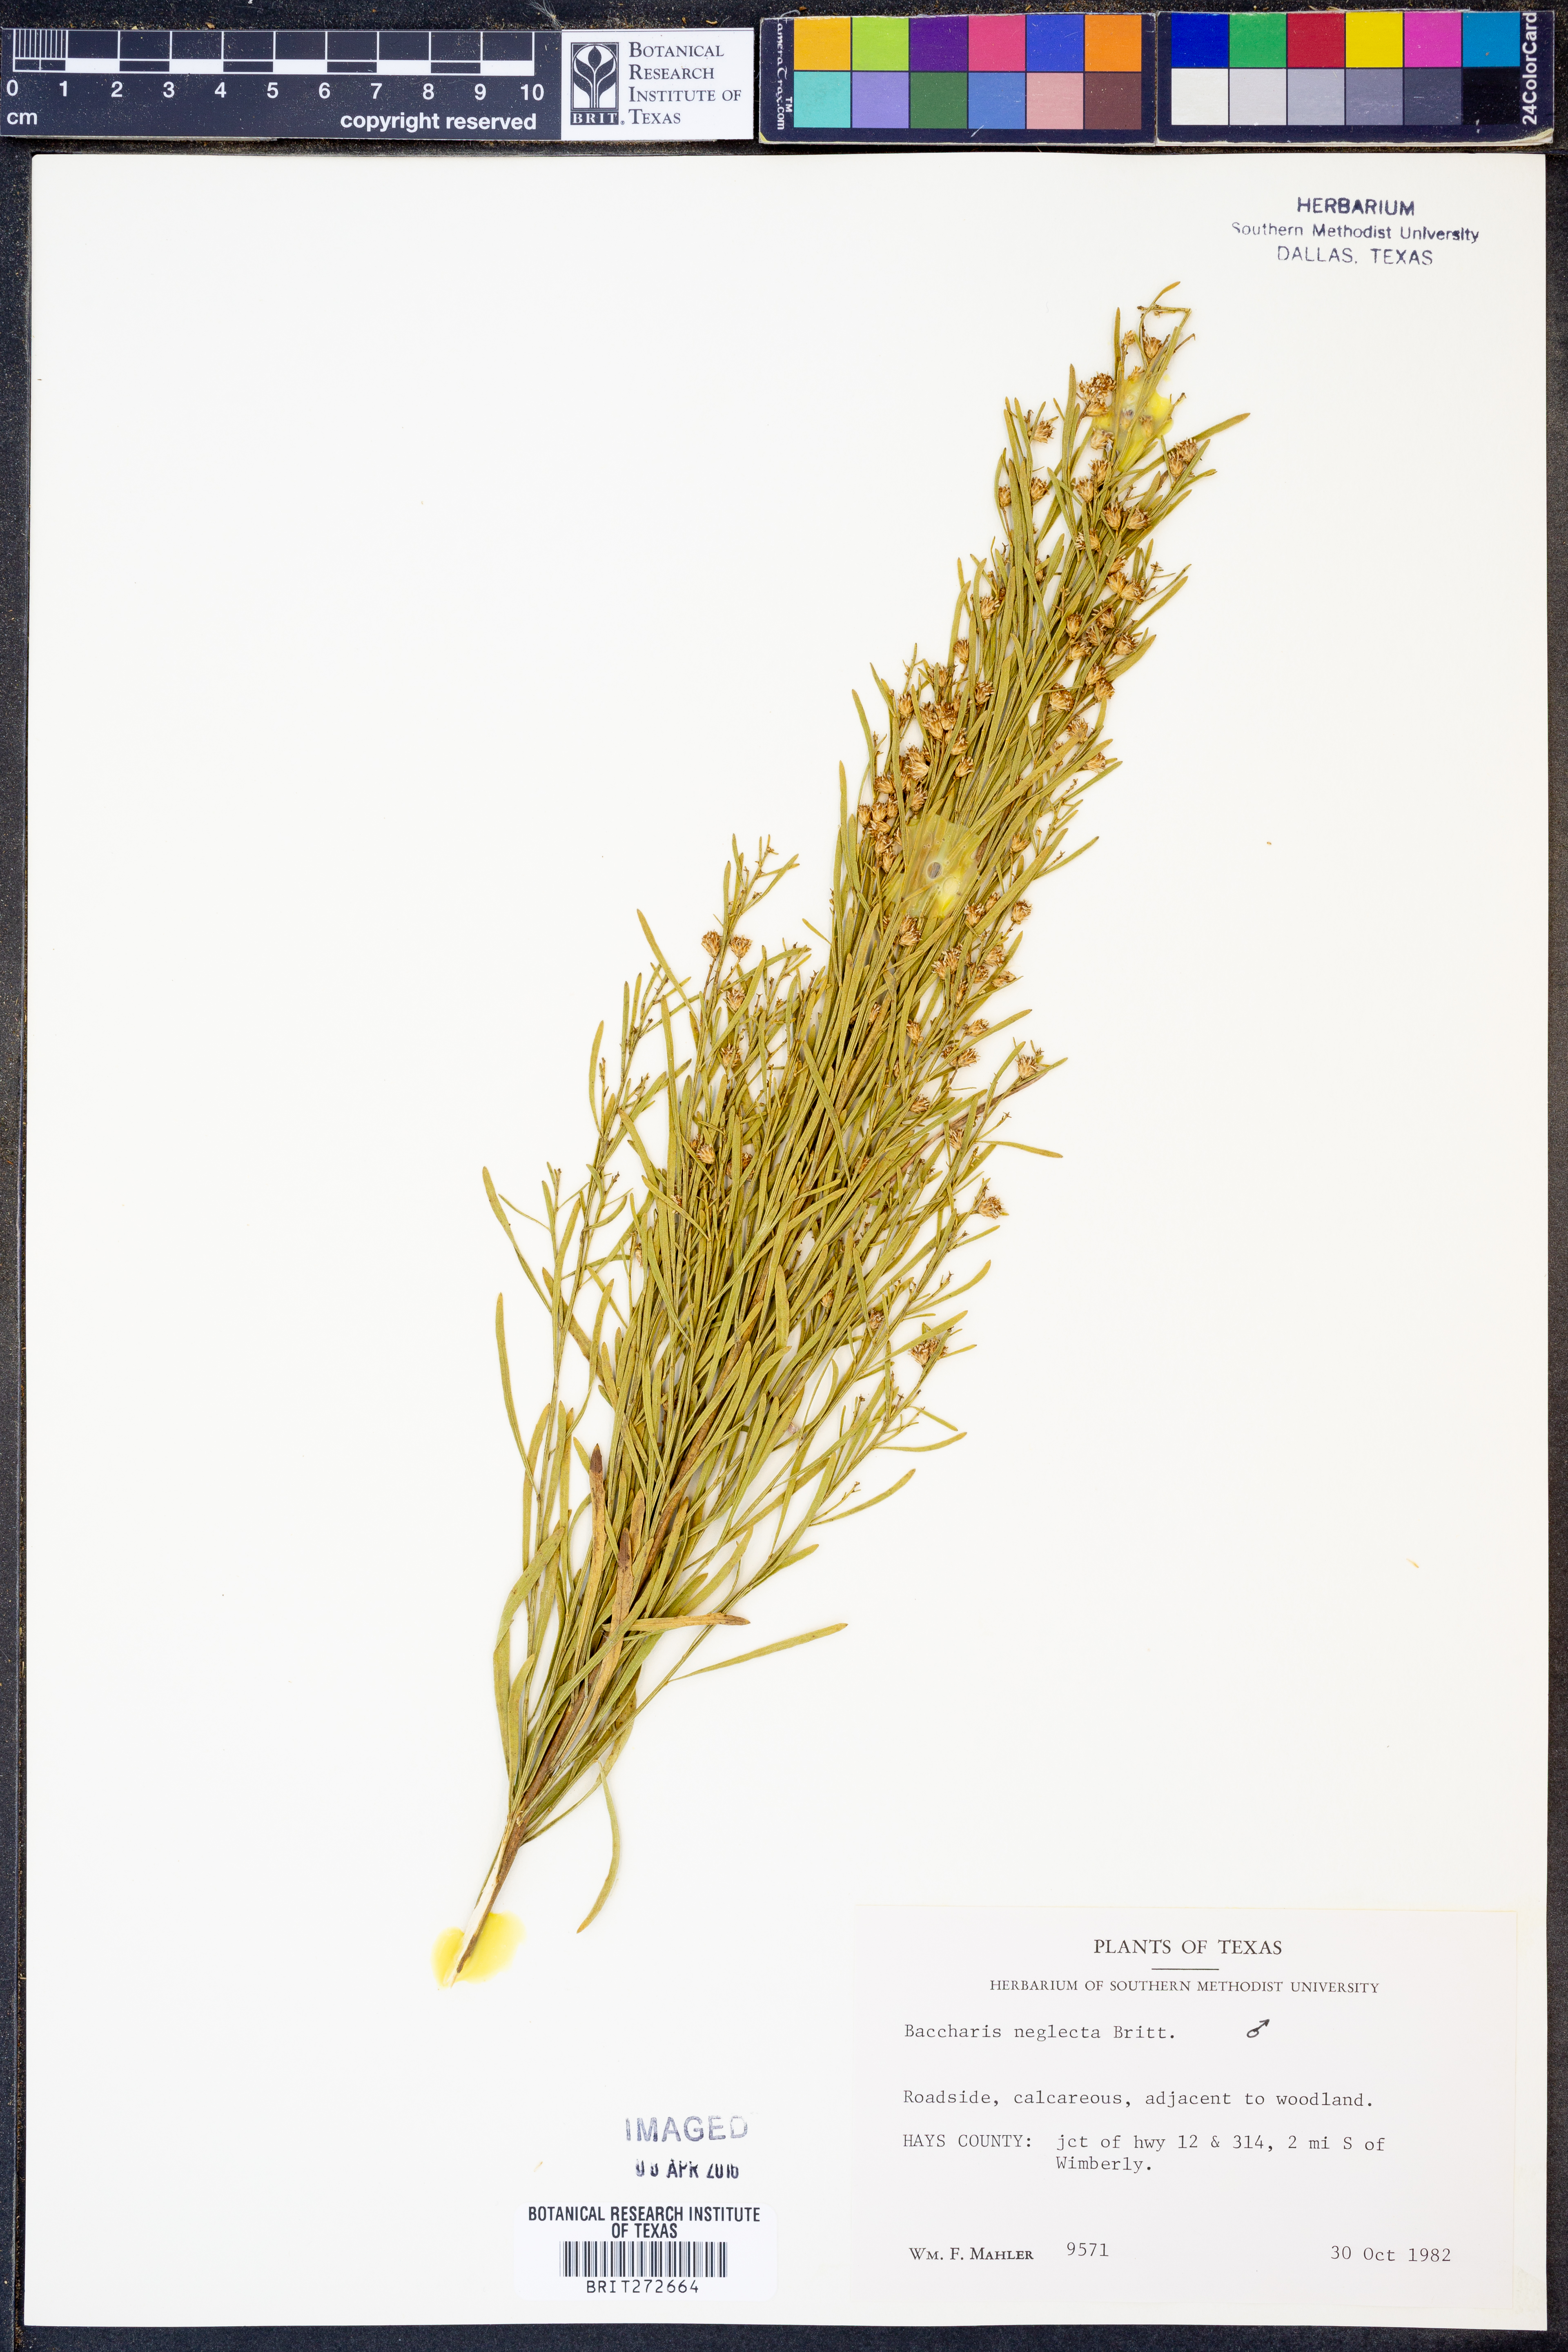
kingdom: Plantae
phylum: Tracheophyta
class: Magnoliopsida
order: Asterales
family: Asteraceae
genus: Baccharis
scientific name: Baccharis neglecta
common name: Roosevelt-weed
